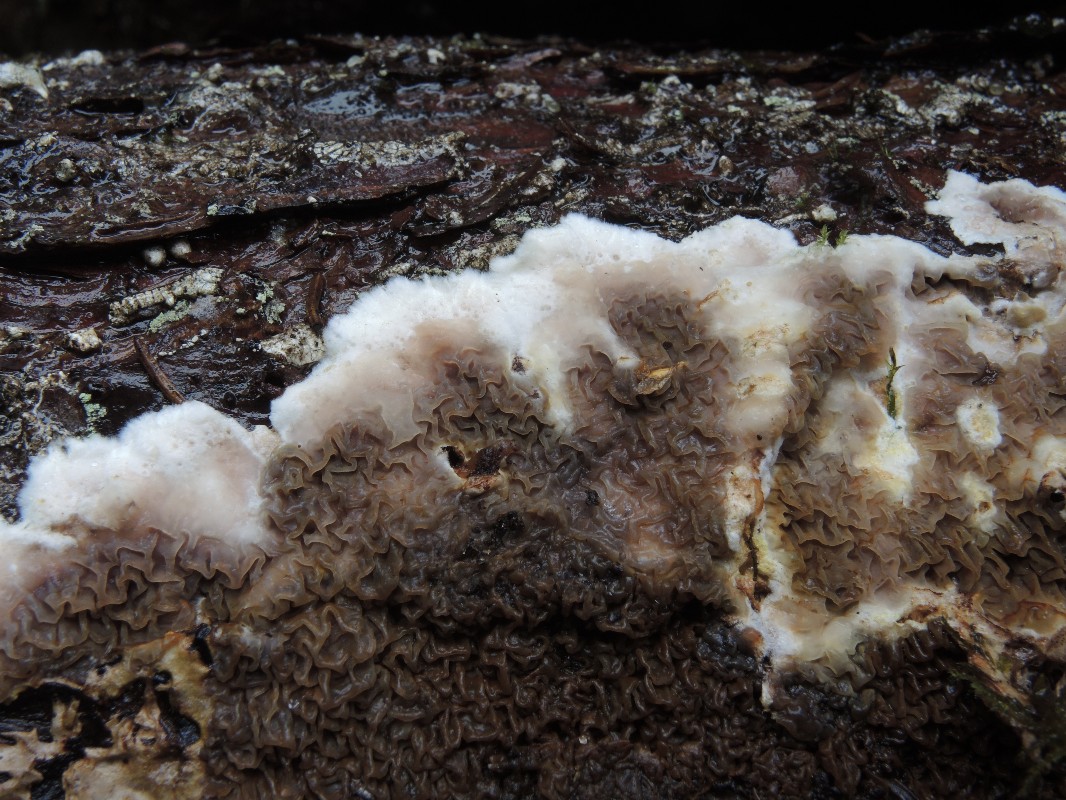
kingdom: Fungi
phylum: Basidiomycota
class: Agaricomycetes
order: Boletales
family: Serpulaceae
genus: Serpula
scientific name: Serpula himantioides
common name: tyndkødet hussvamp
